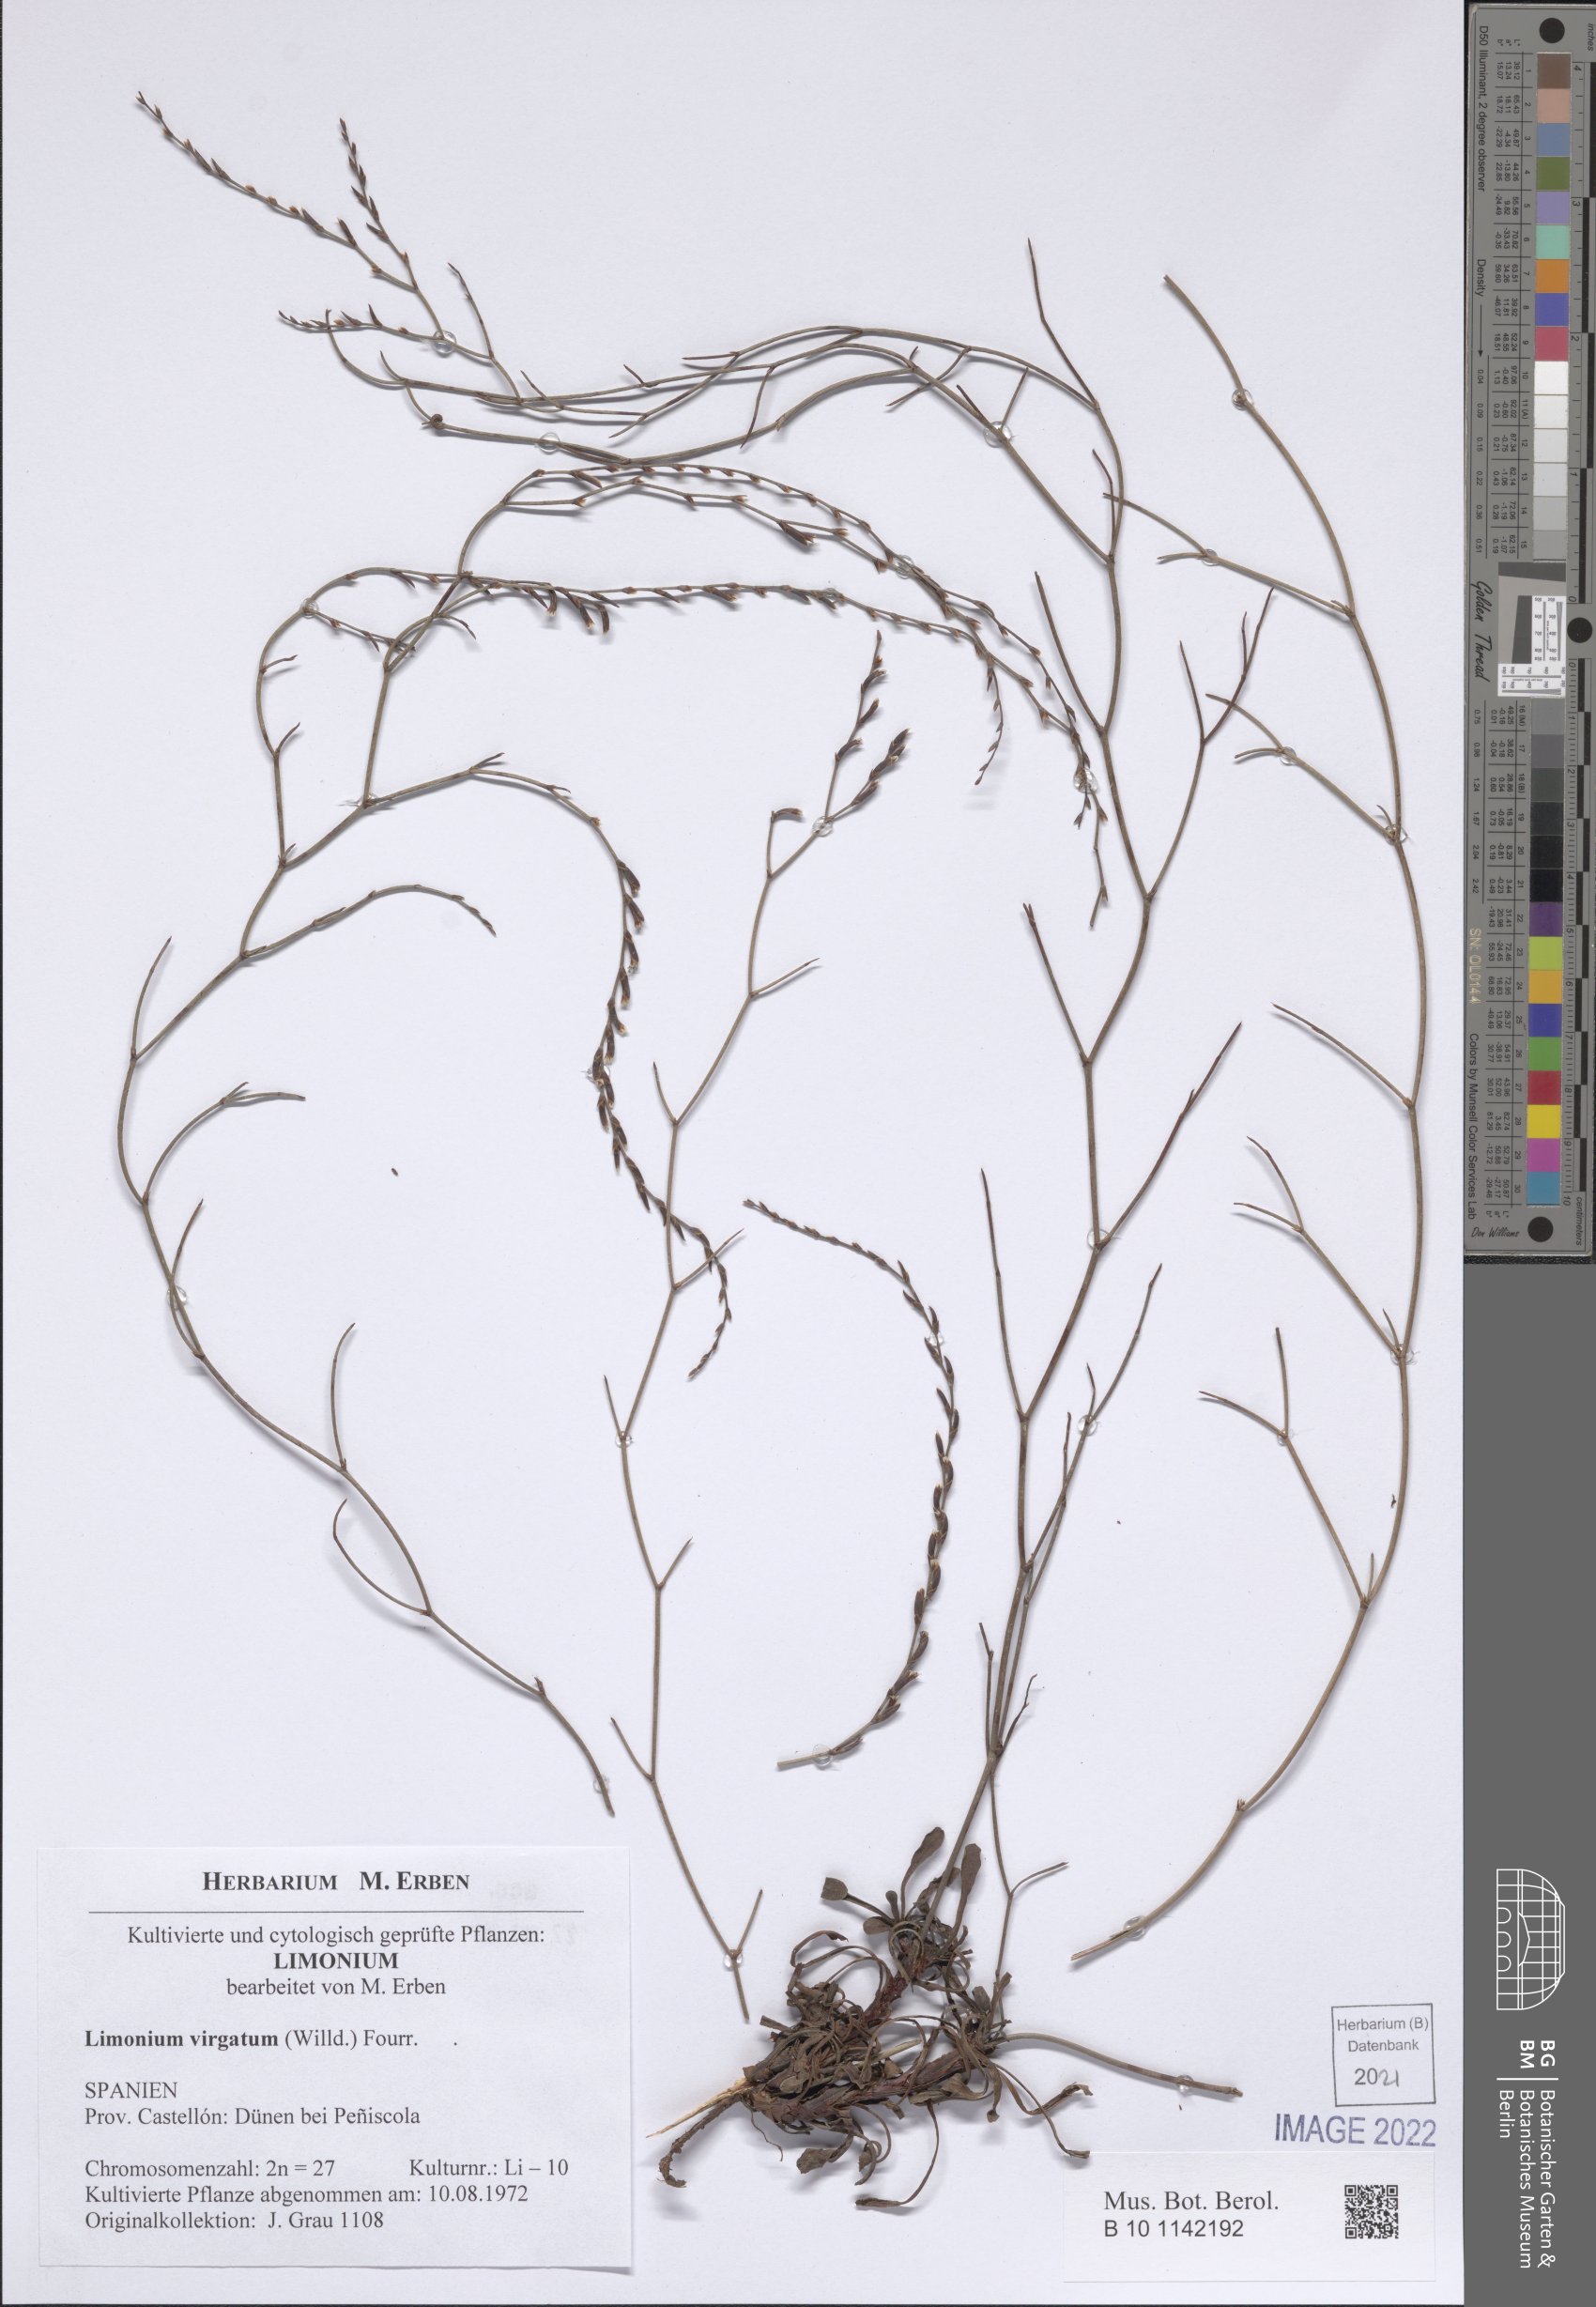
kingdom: Plantae
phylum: Tracheophyta
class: Magnoliopsida
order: Caryophyllales
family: Plumbaginaceae
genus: Limonium
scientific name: Limonium virgatum
